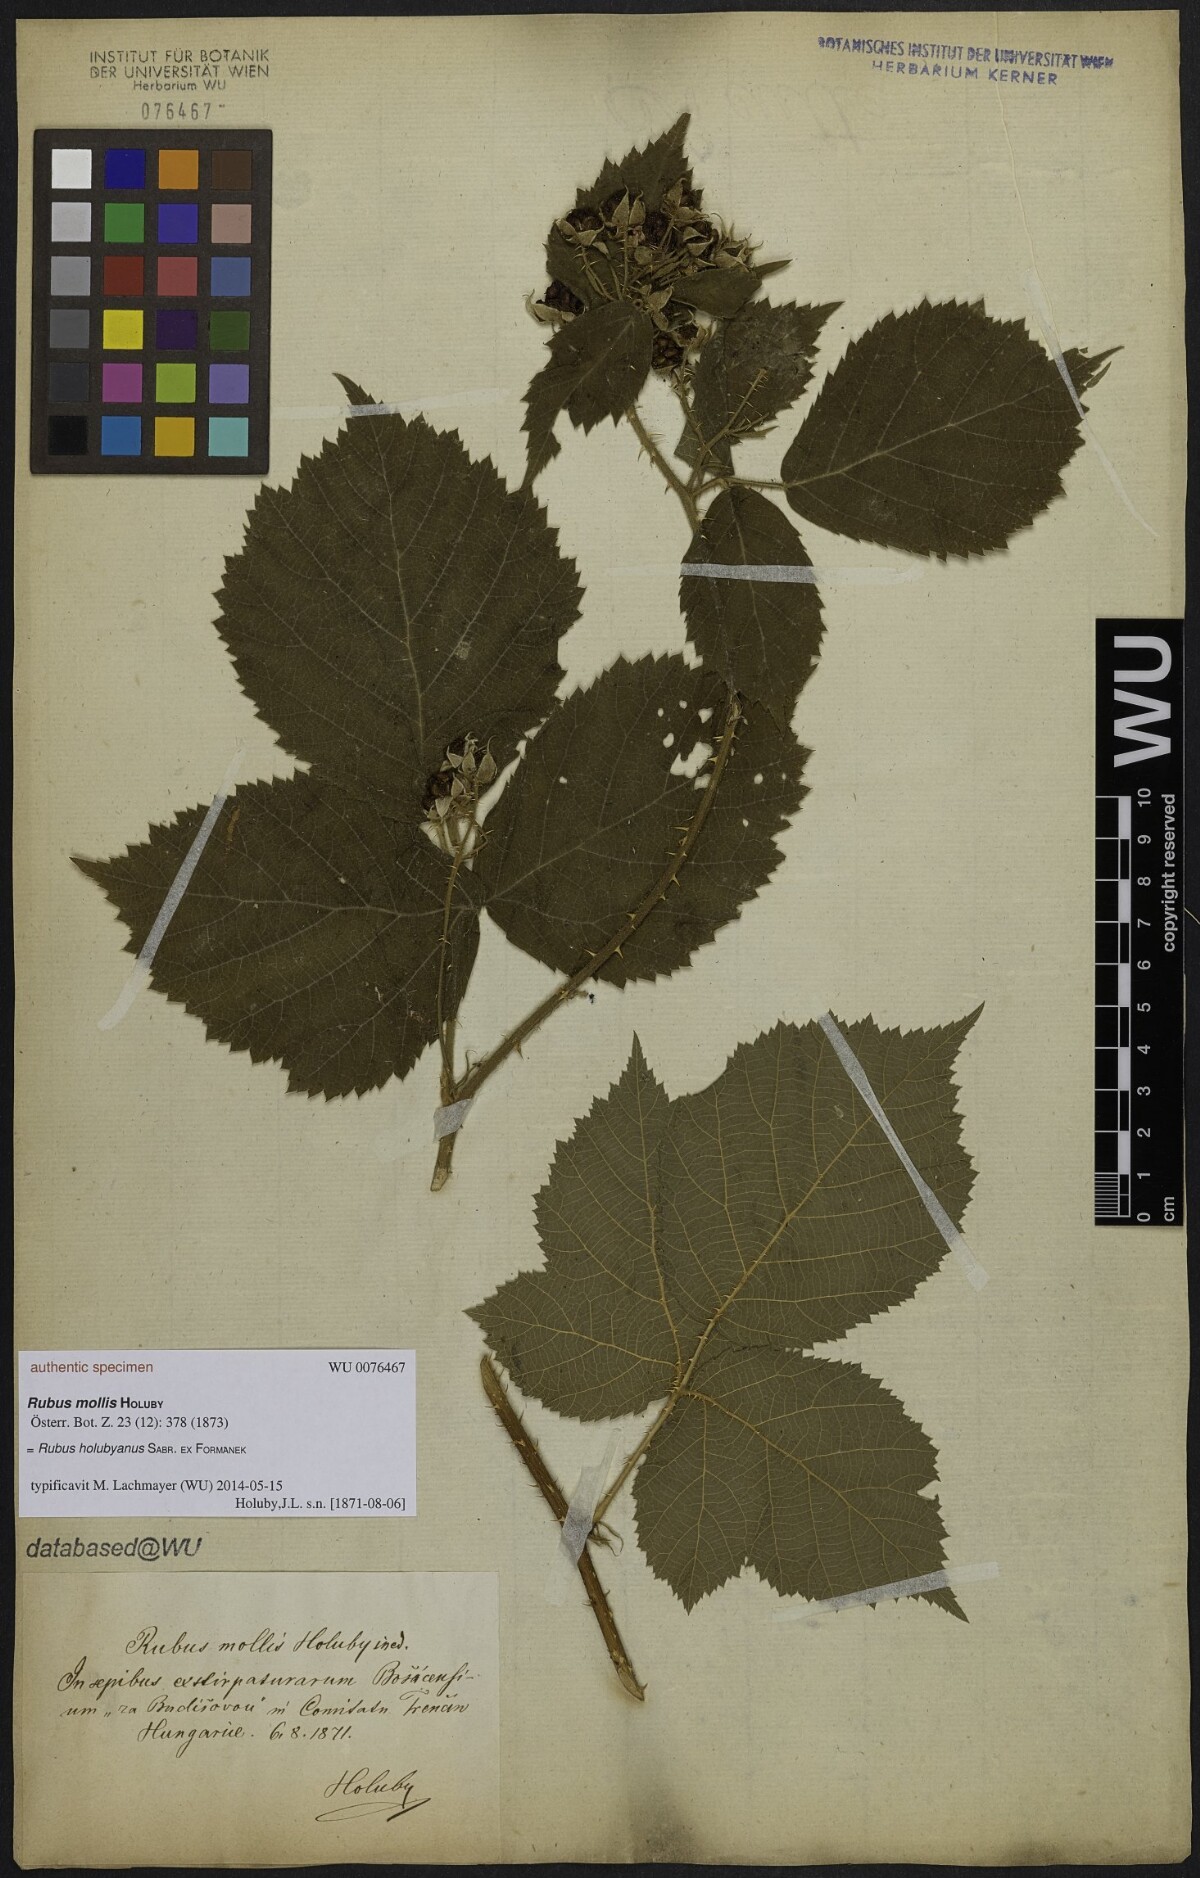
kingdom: Plantae
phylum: Tracheophyta
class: Magnoliopsida
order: Rosales
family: Rosaceae
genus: Rubus
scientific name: Rubus mollis
